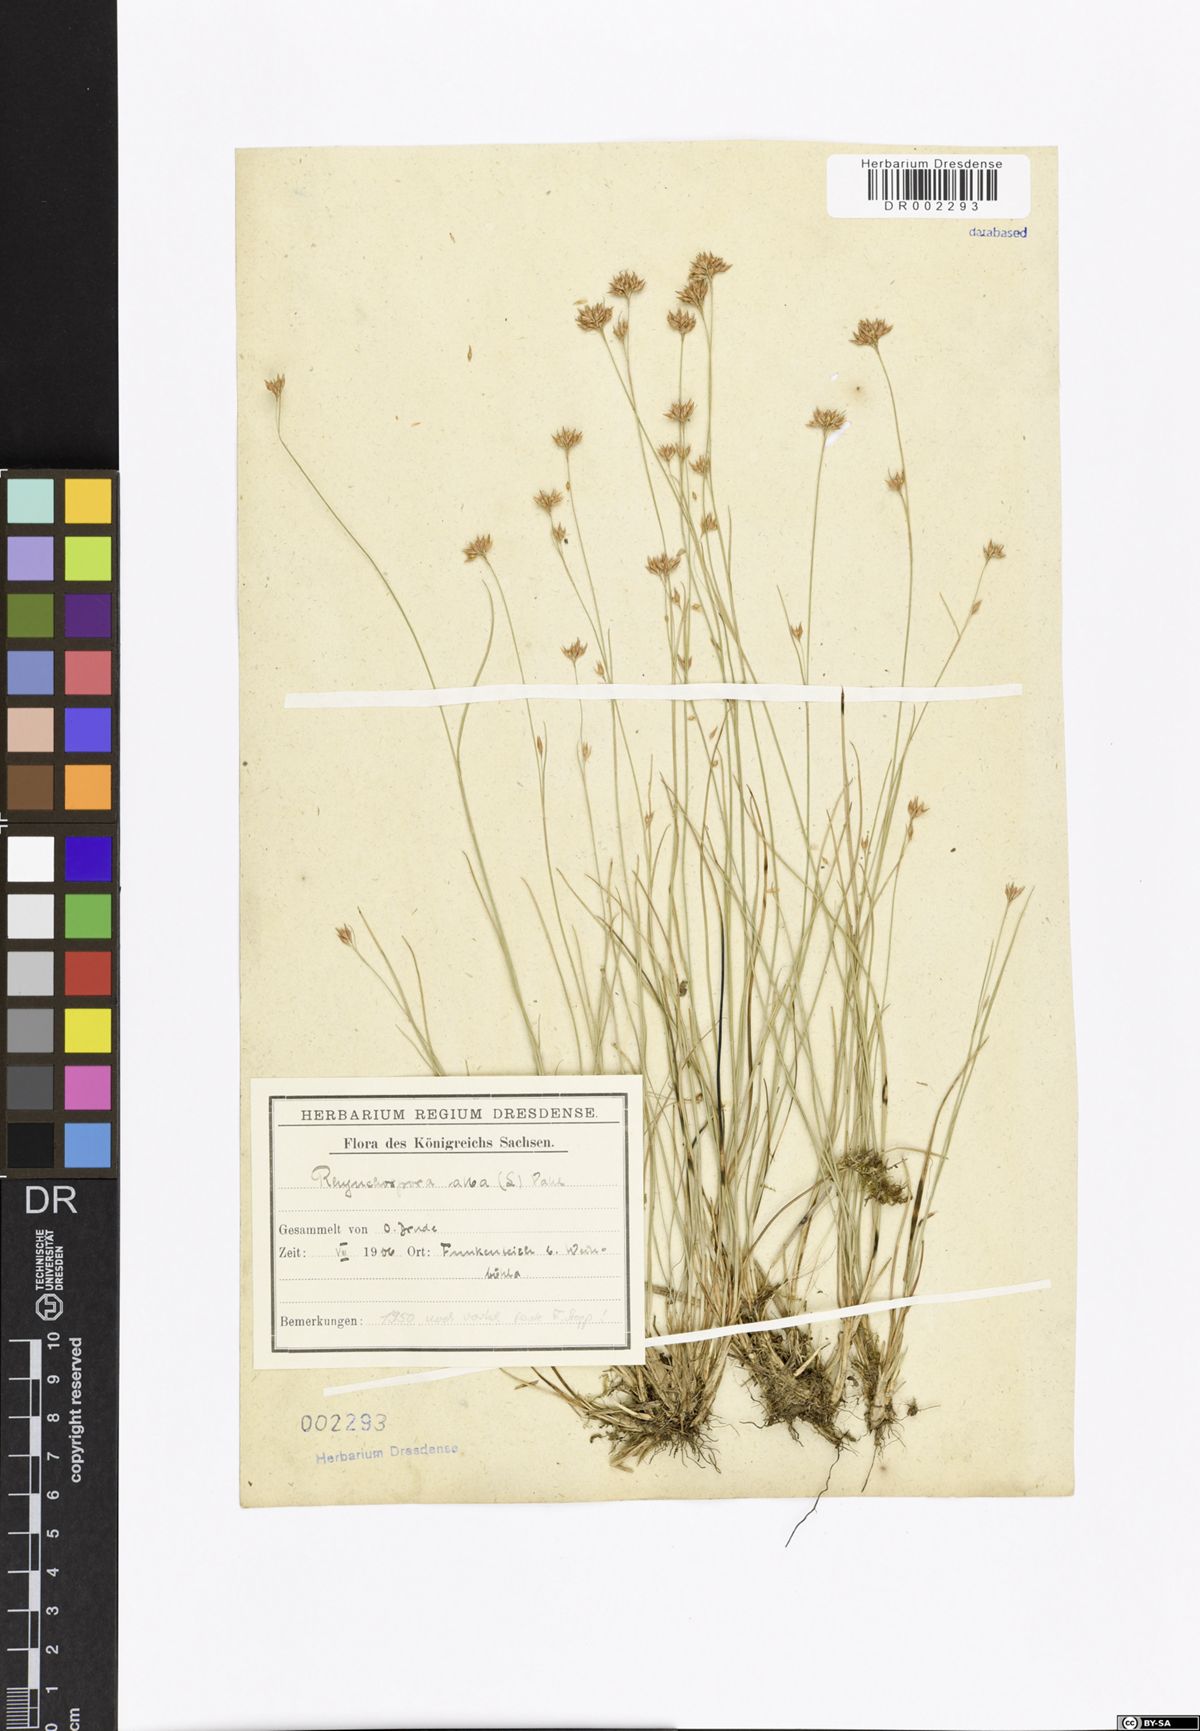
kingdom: Plantae
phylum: Tracheophyta
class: Liliopsida
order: Poales
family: Cyperaceae
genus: Rhynchospora
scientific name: Rhynchospora alba
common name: White beak-sedge
